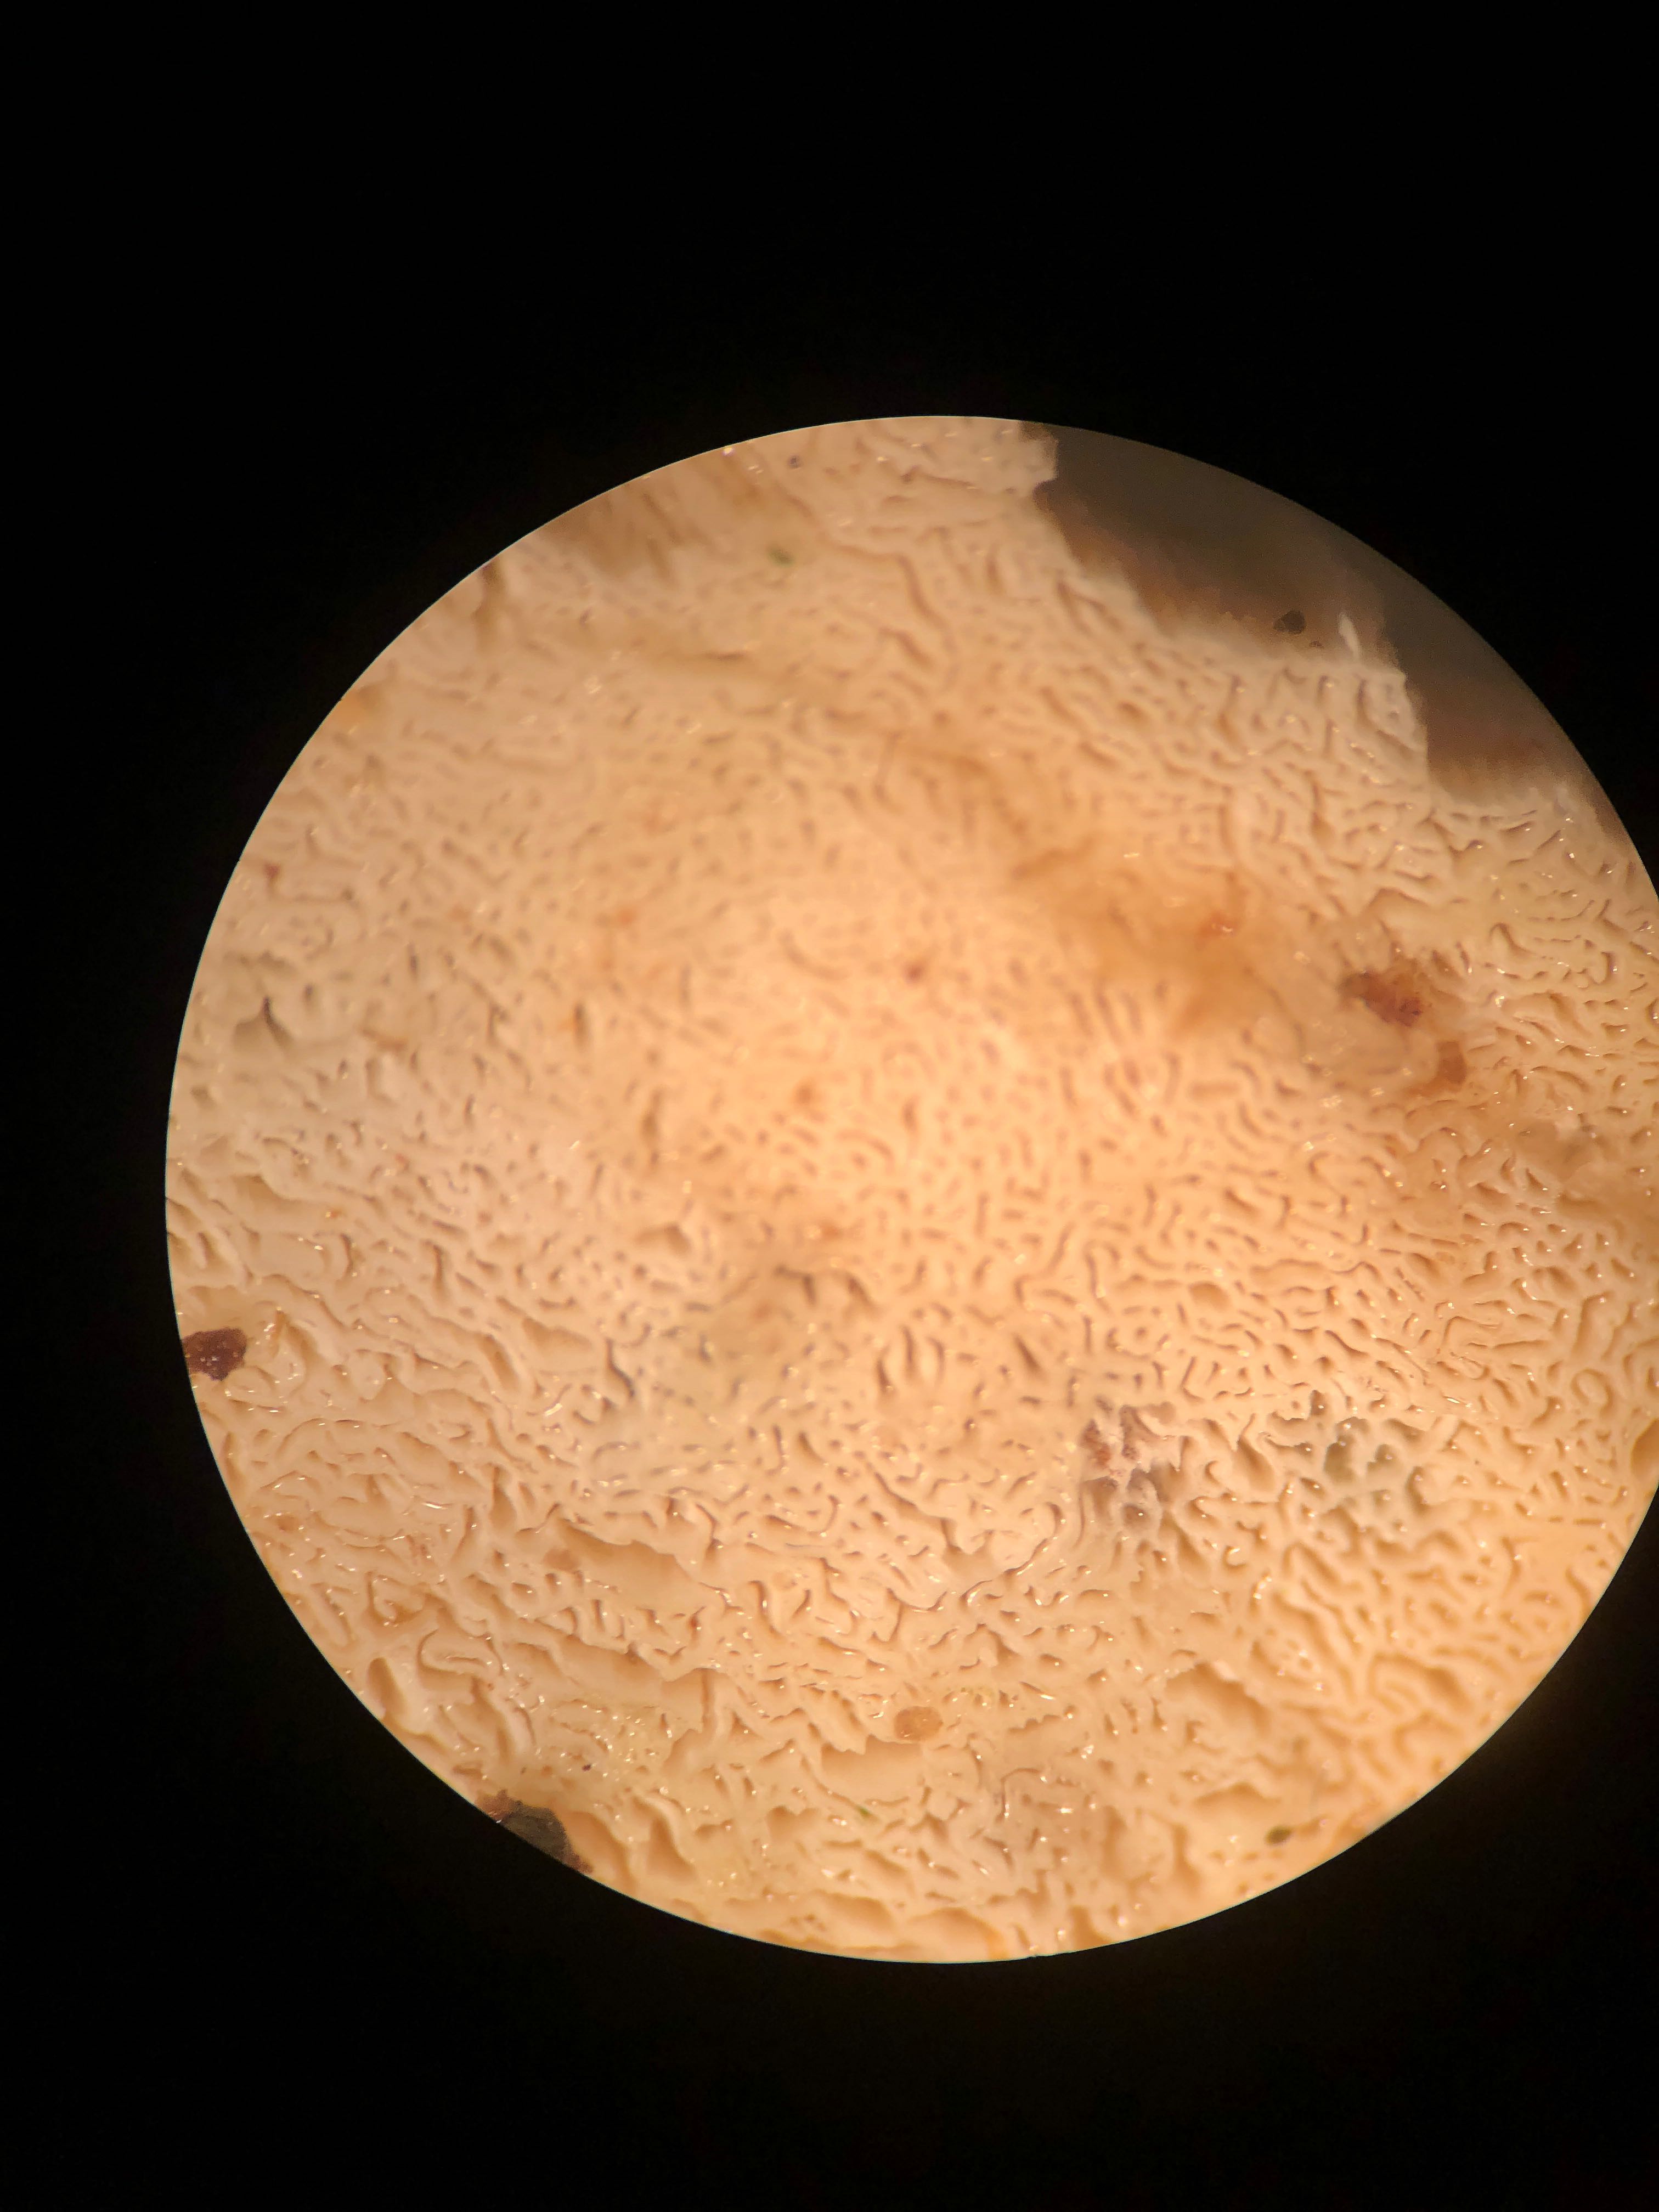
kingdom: Fungi
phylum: Basidiomycota
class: Agaricomycetes
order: Hymenochaetales
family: Schizoporaceae
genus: Xylodon
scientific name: Xylodon subtropicus
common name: labyrint-tandsvamp
